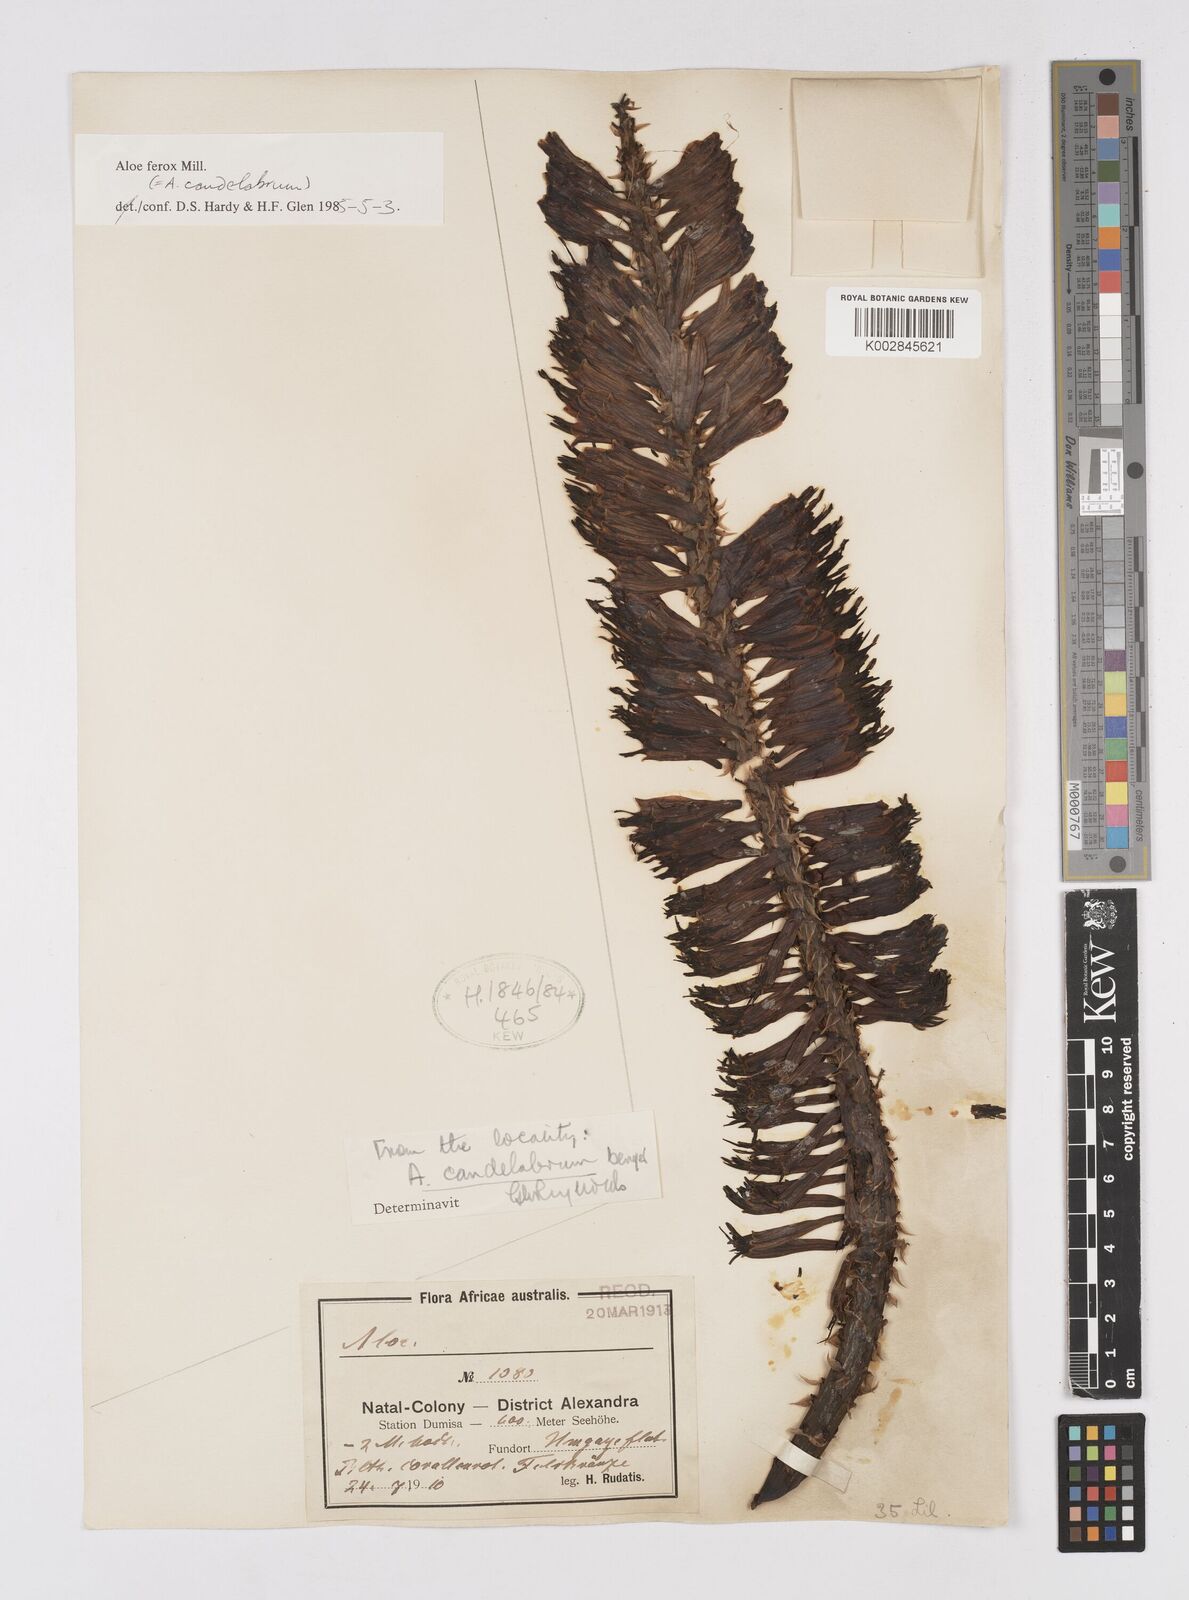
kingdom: Plantae
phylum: Tracheophyta
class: Liliopsida
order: Asparagales
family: Asphodelaceae
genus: Aloe
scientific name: Aloe ferox
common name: Bitter aloe
